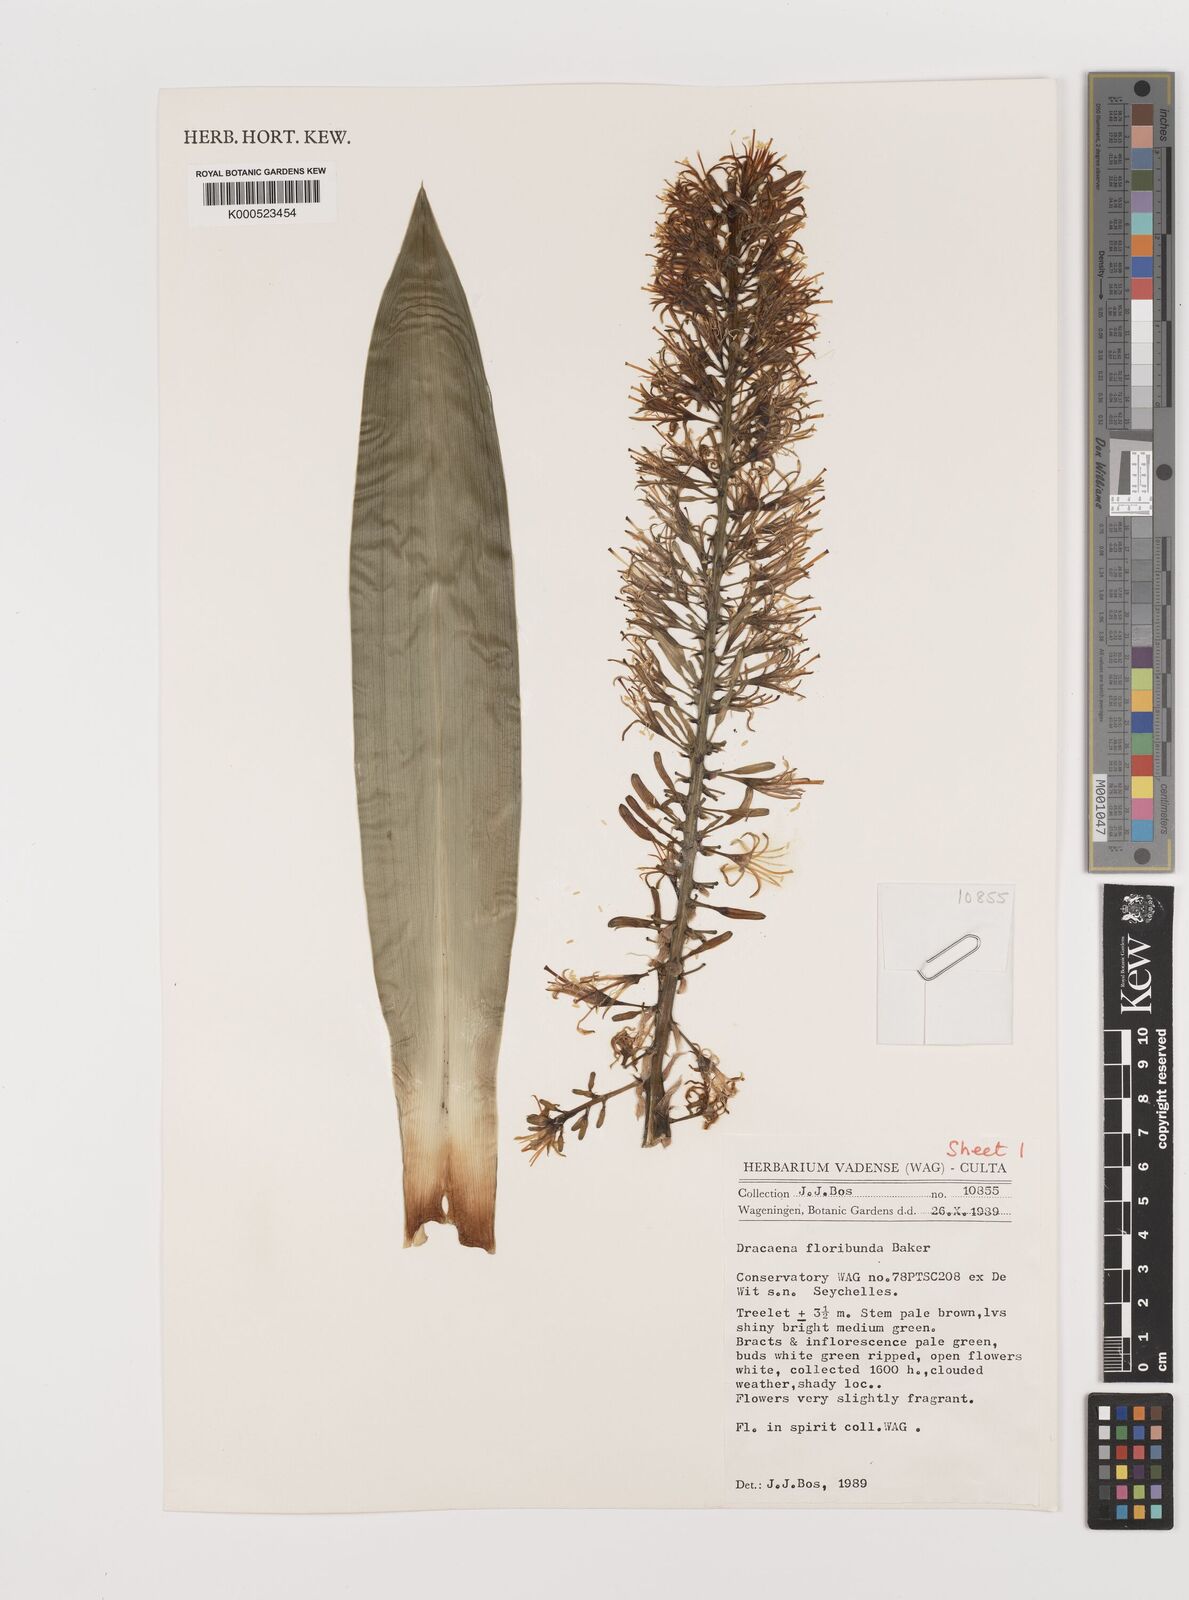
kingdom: Plantae
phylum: Tracheophyta
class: Liliopsida
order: Asparagales
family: Asparagaceae
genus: Dracaena
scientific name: Dracaena floribunda
